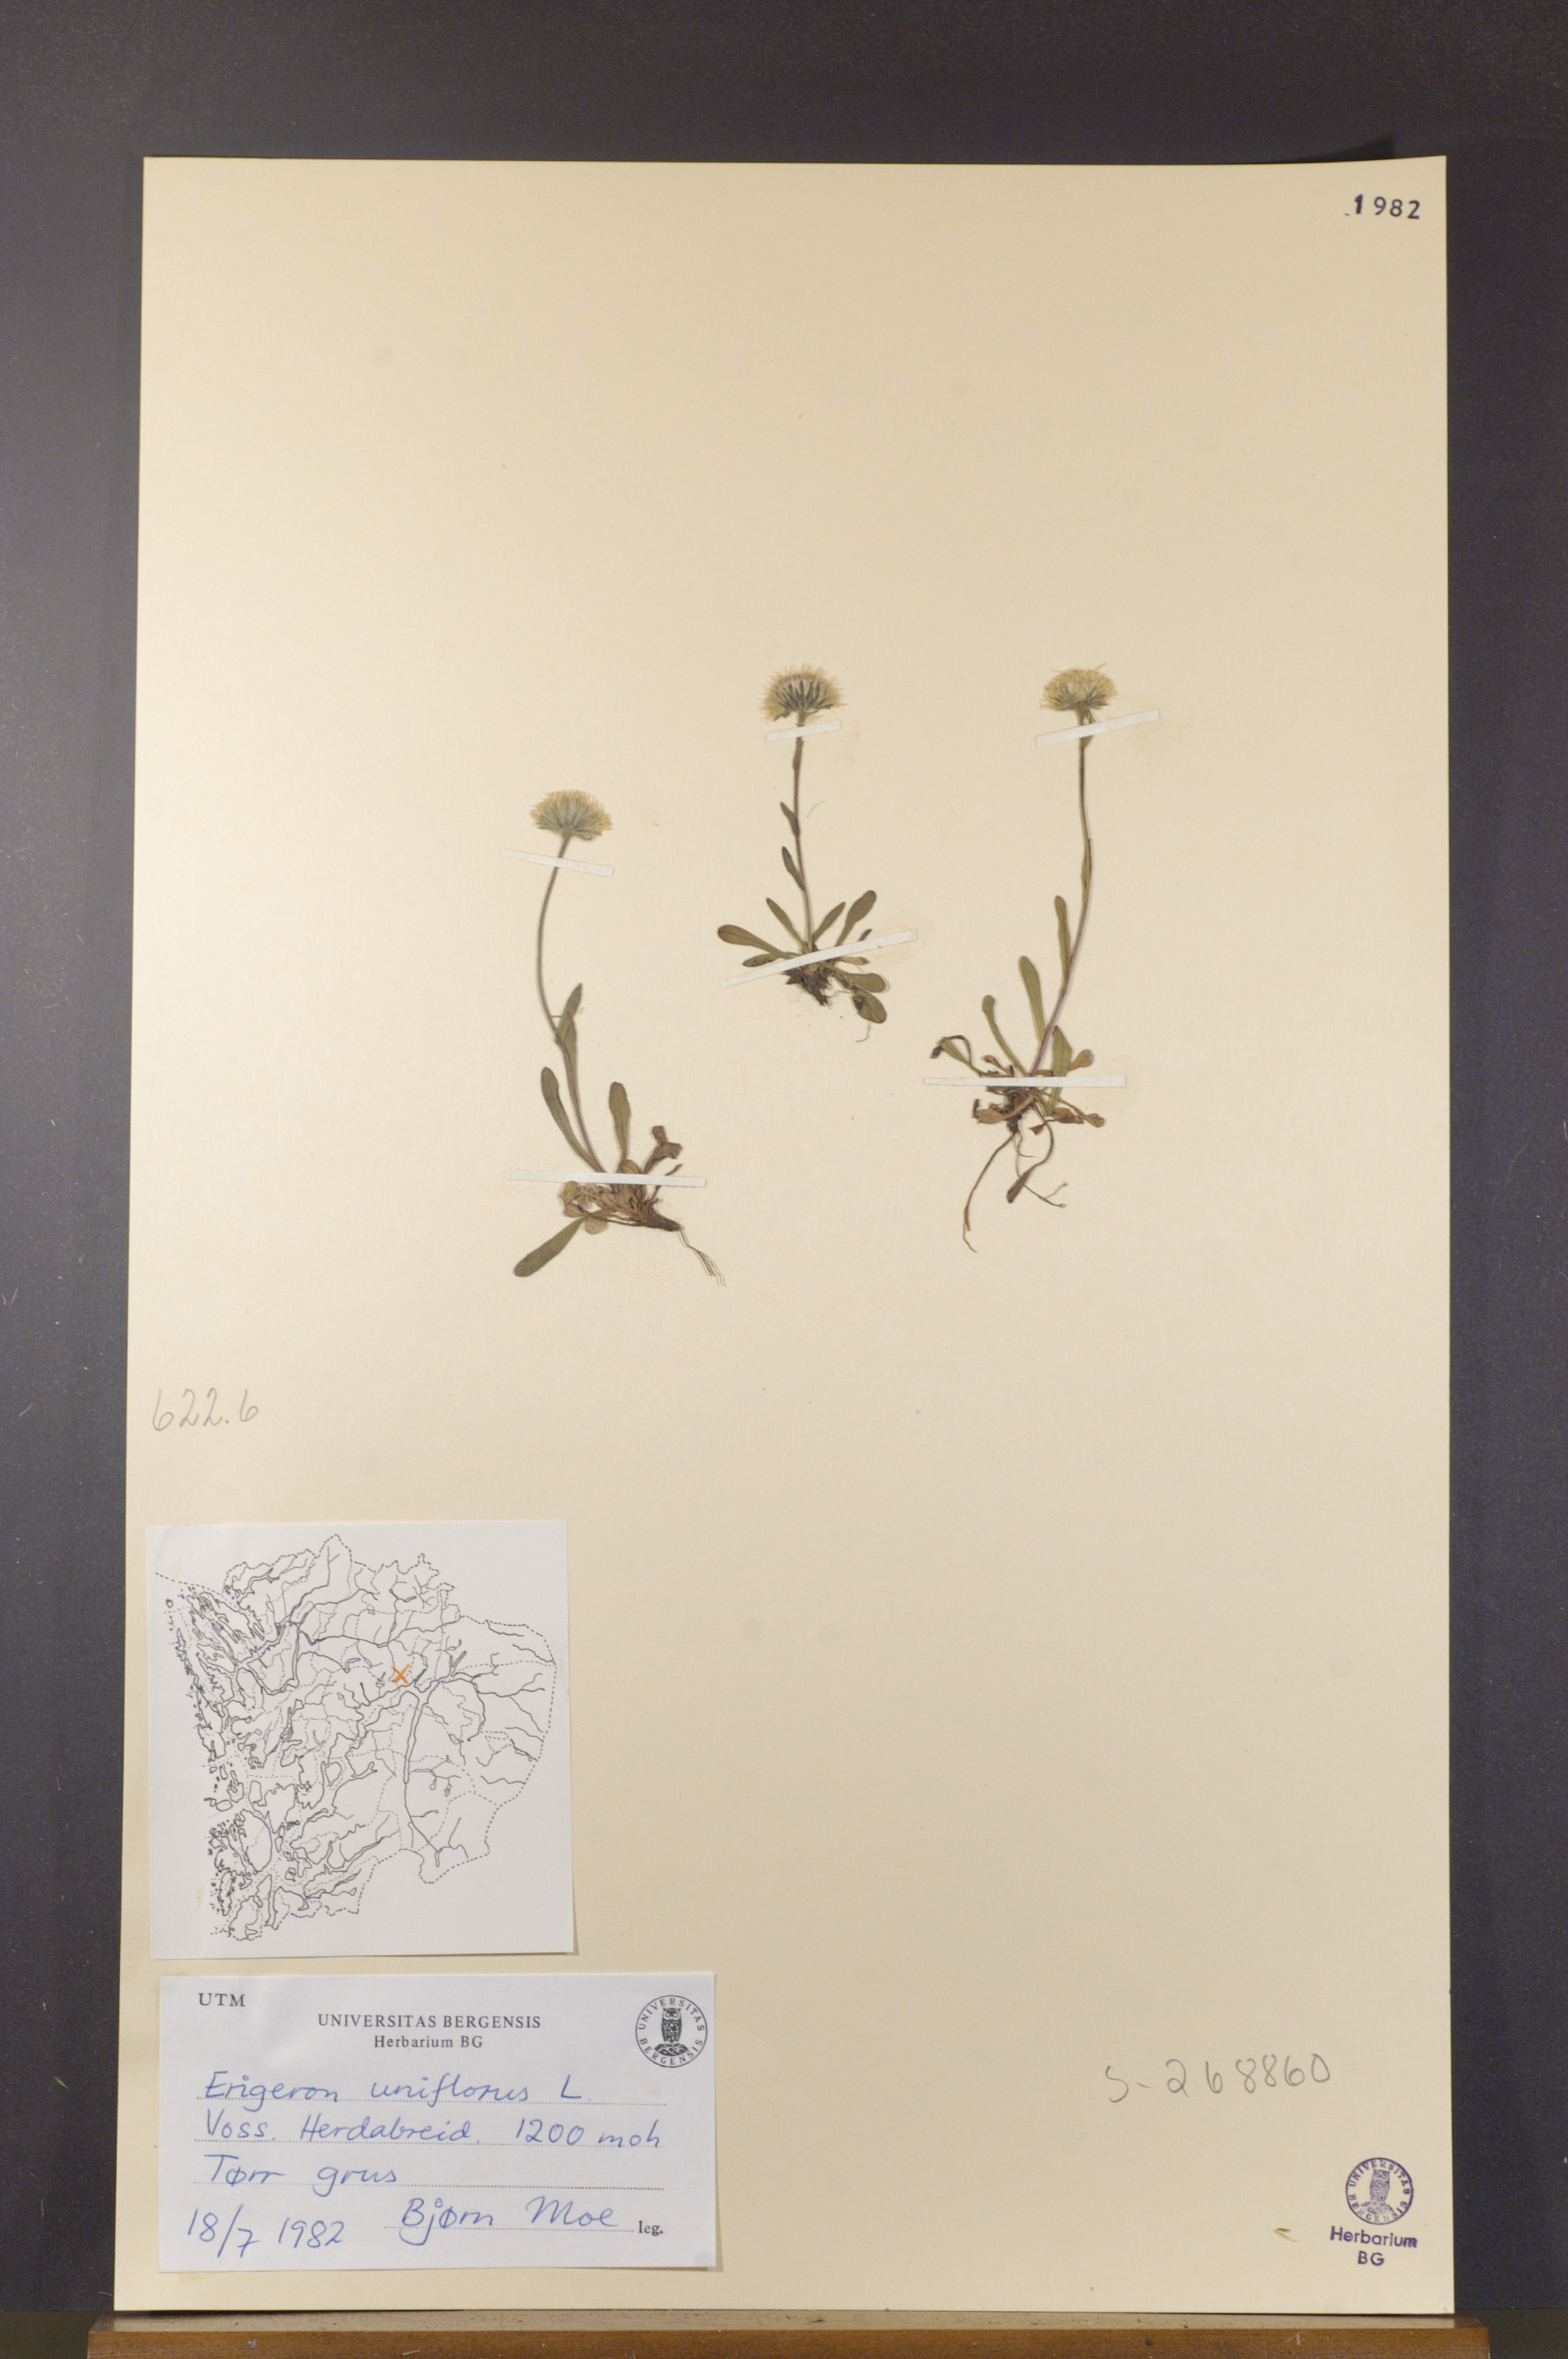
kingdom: Plantae
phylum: Tracheophyta
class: Magnoliopsida
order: Asterales
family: Asteraceae
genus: Erigeron
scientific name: Erigeron uniflorus
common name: Northern daisy
